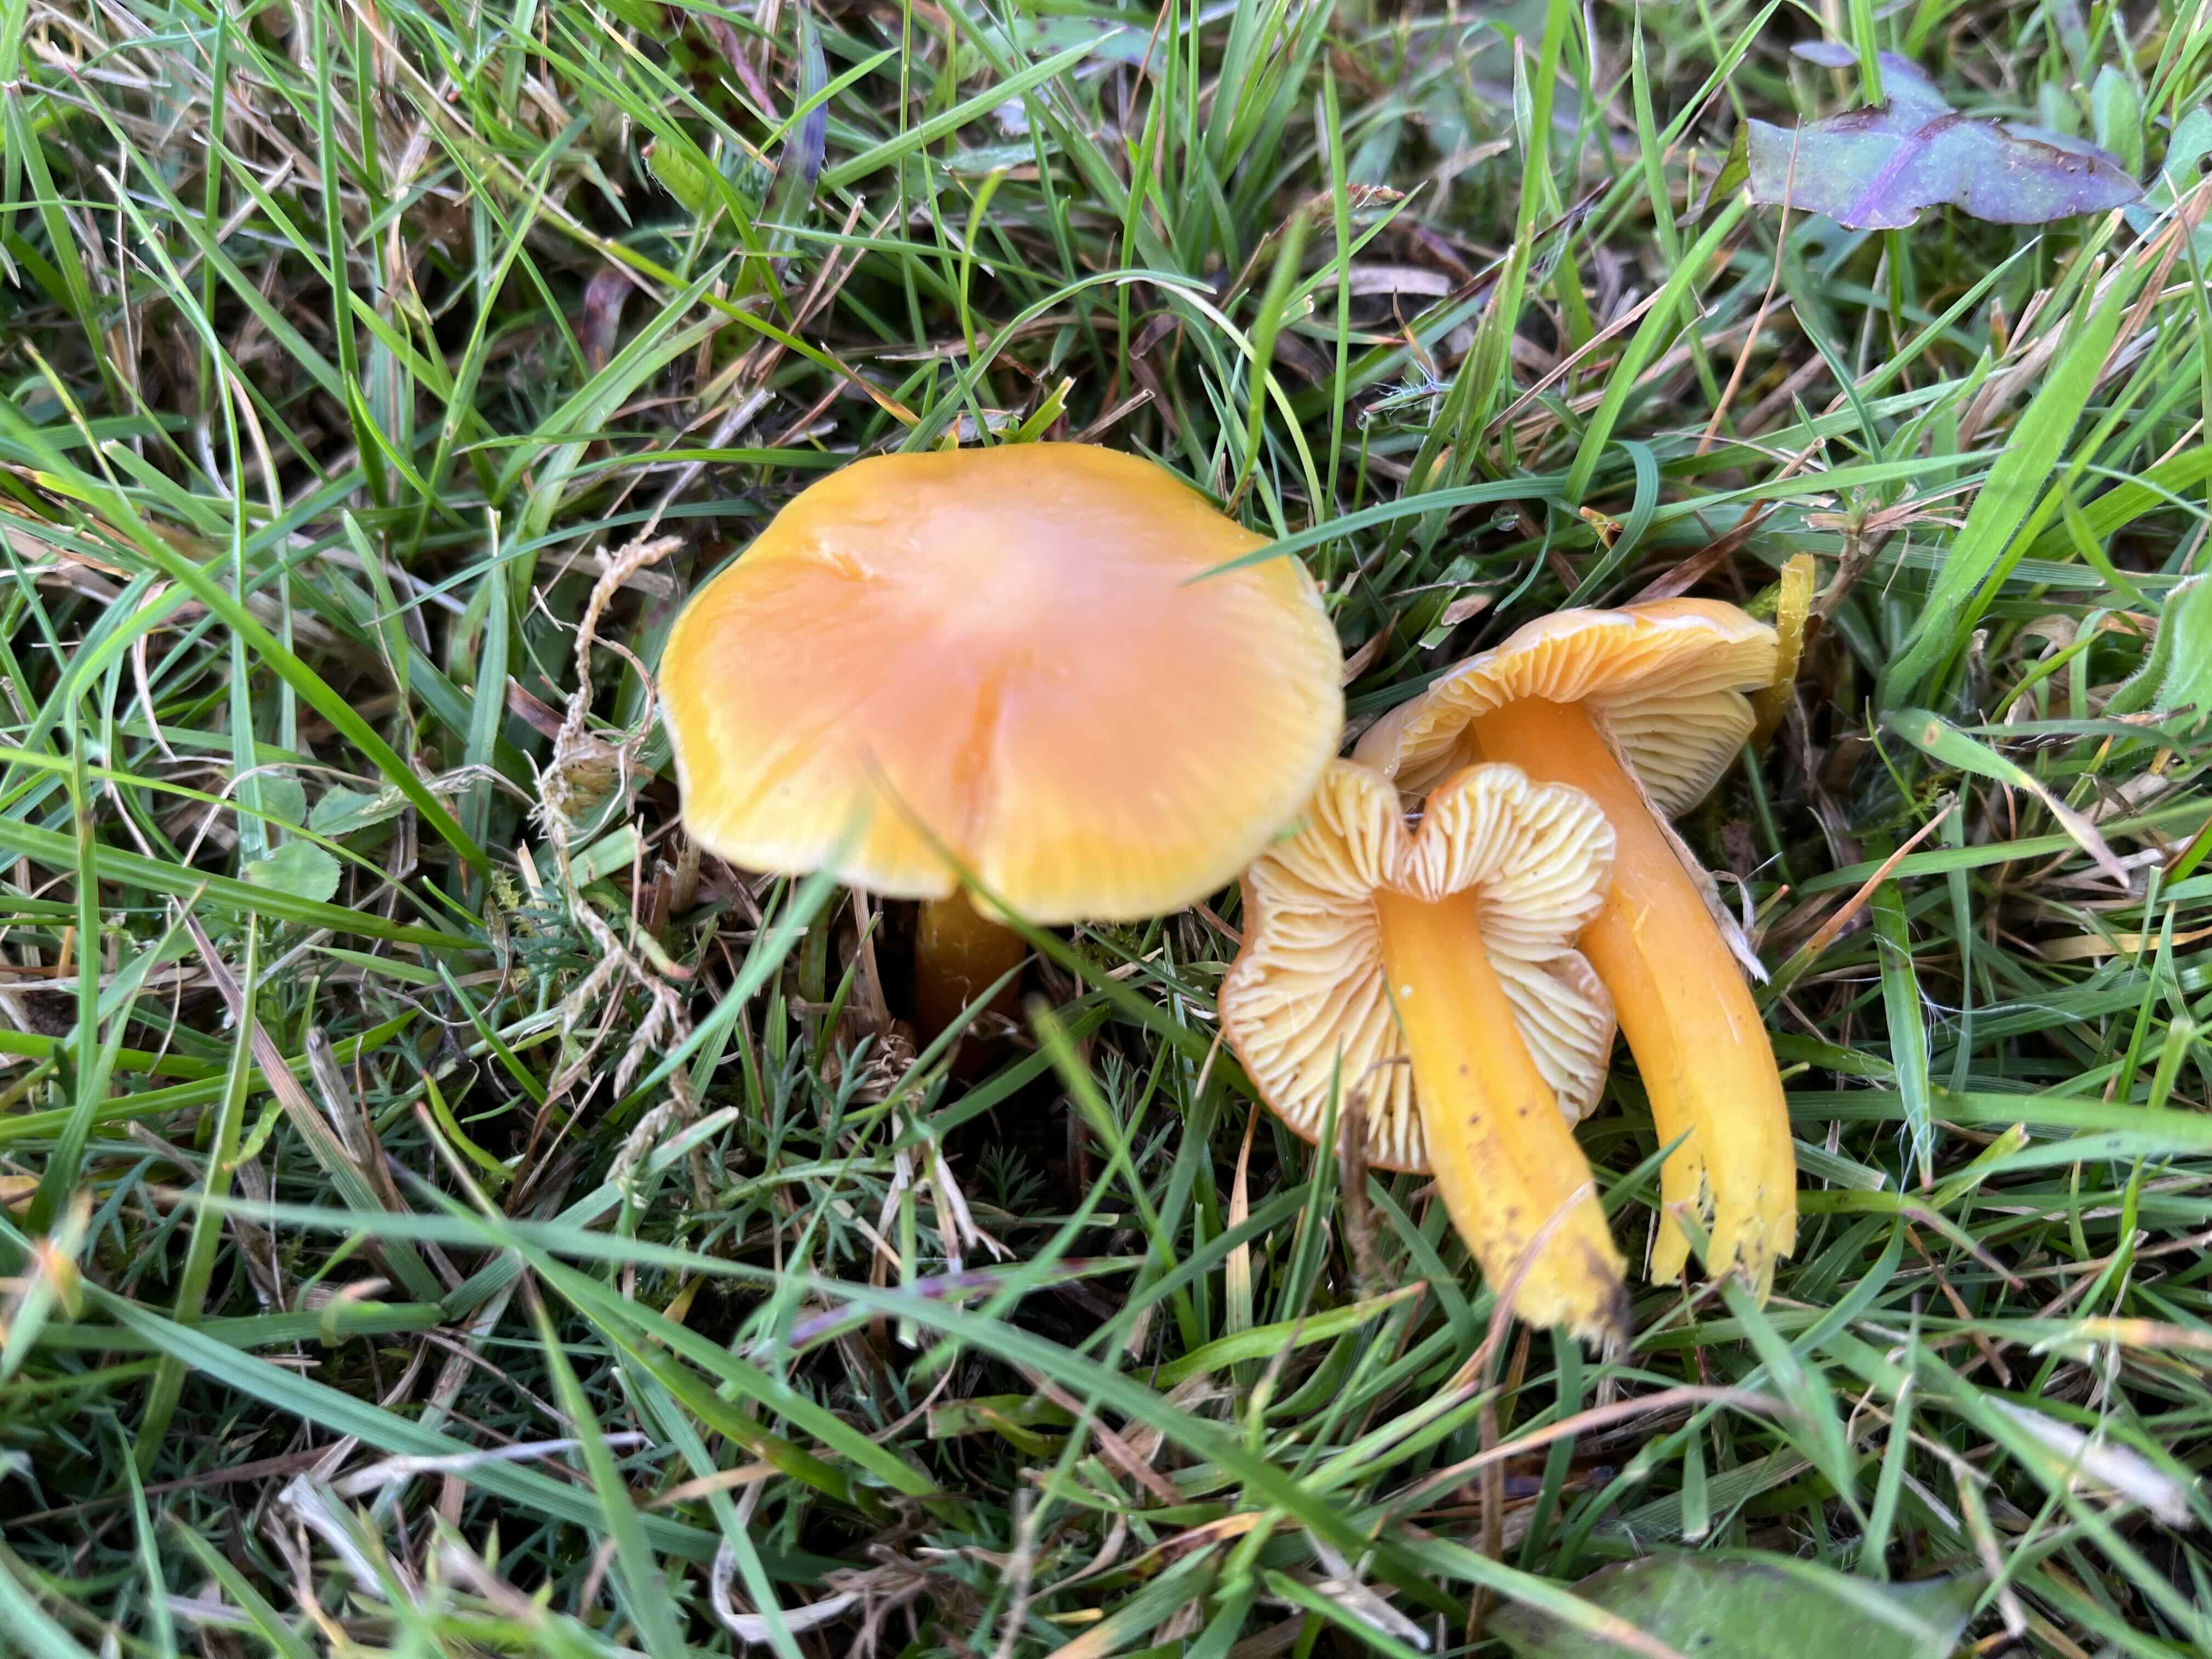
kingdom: Fungi
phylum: Basidiomycota
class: Agaricomycetes
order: Agaricales
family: Hygrophoraceae
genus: Hygrocybe
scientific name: Hygrocybe chlorophana
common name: gul vokshat
